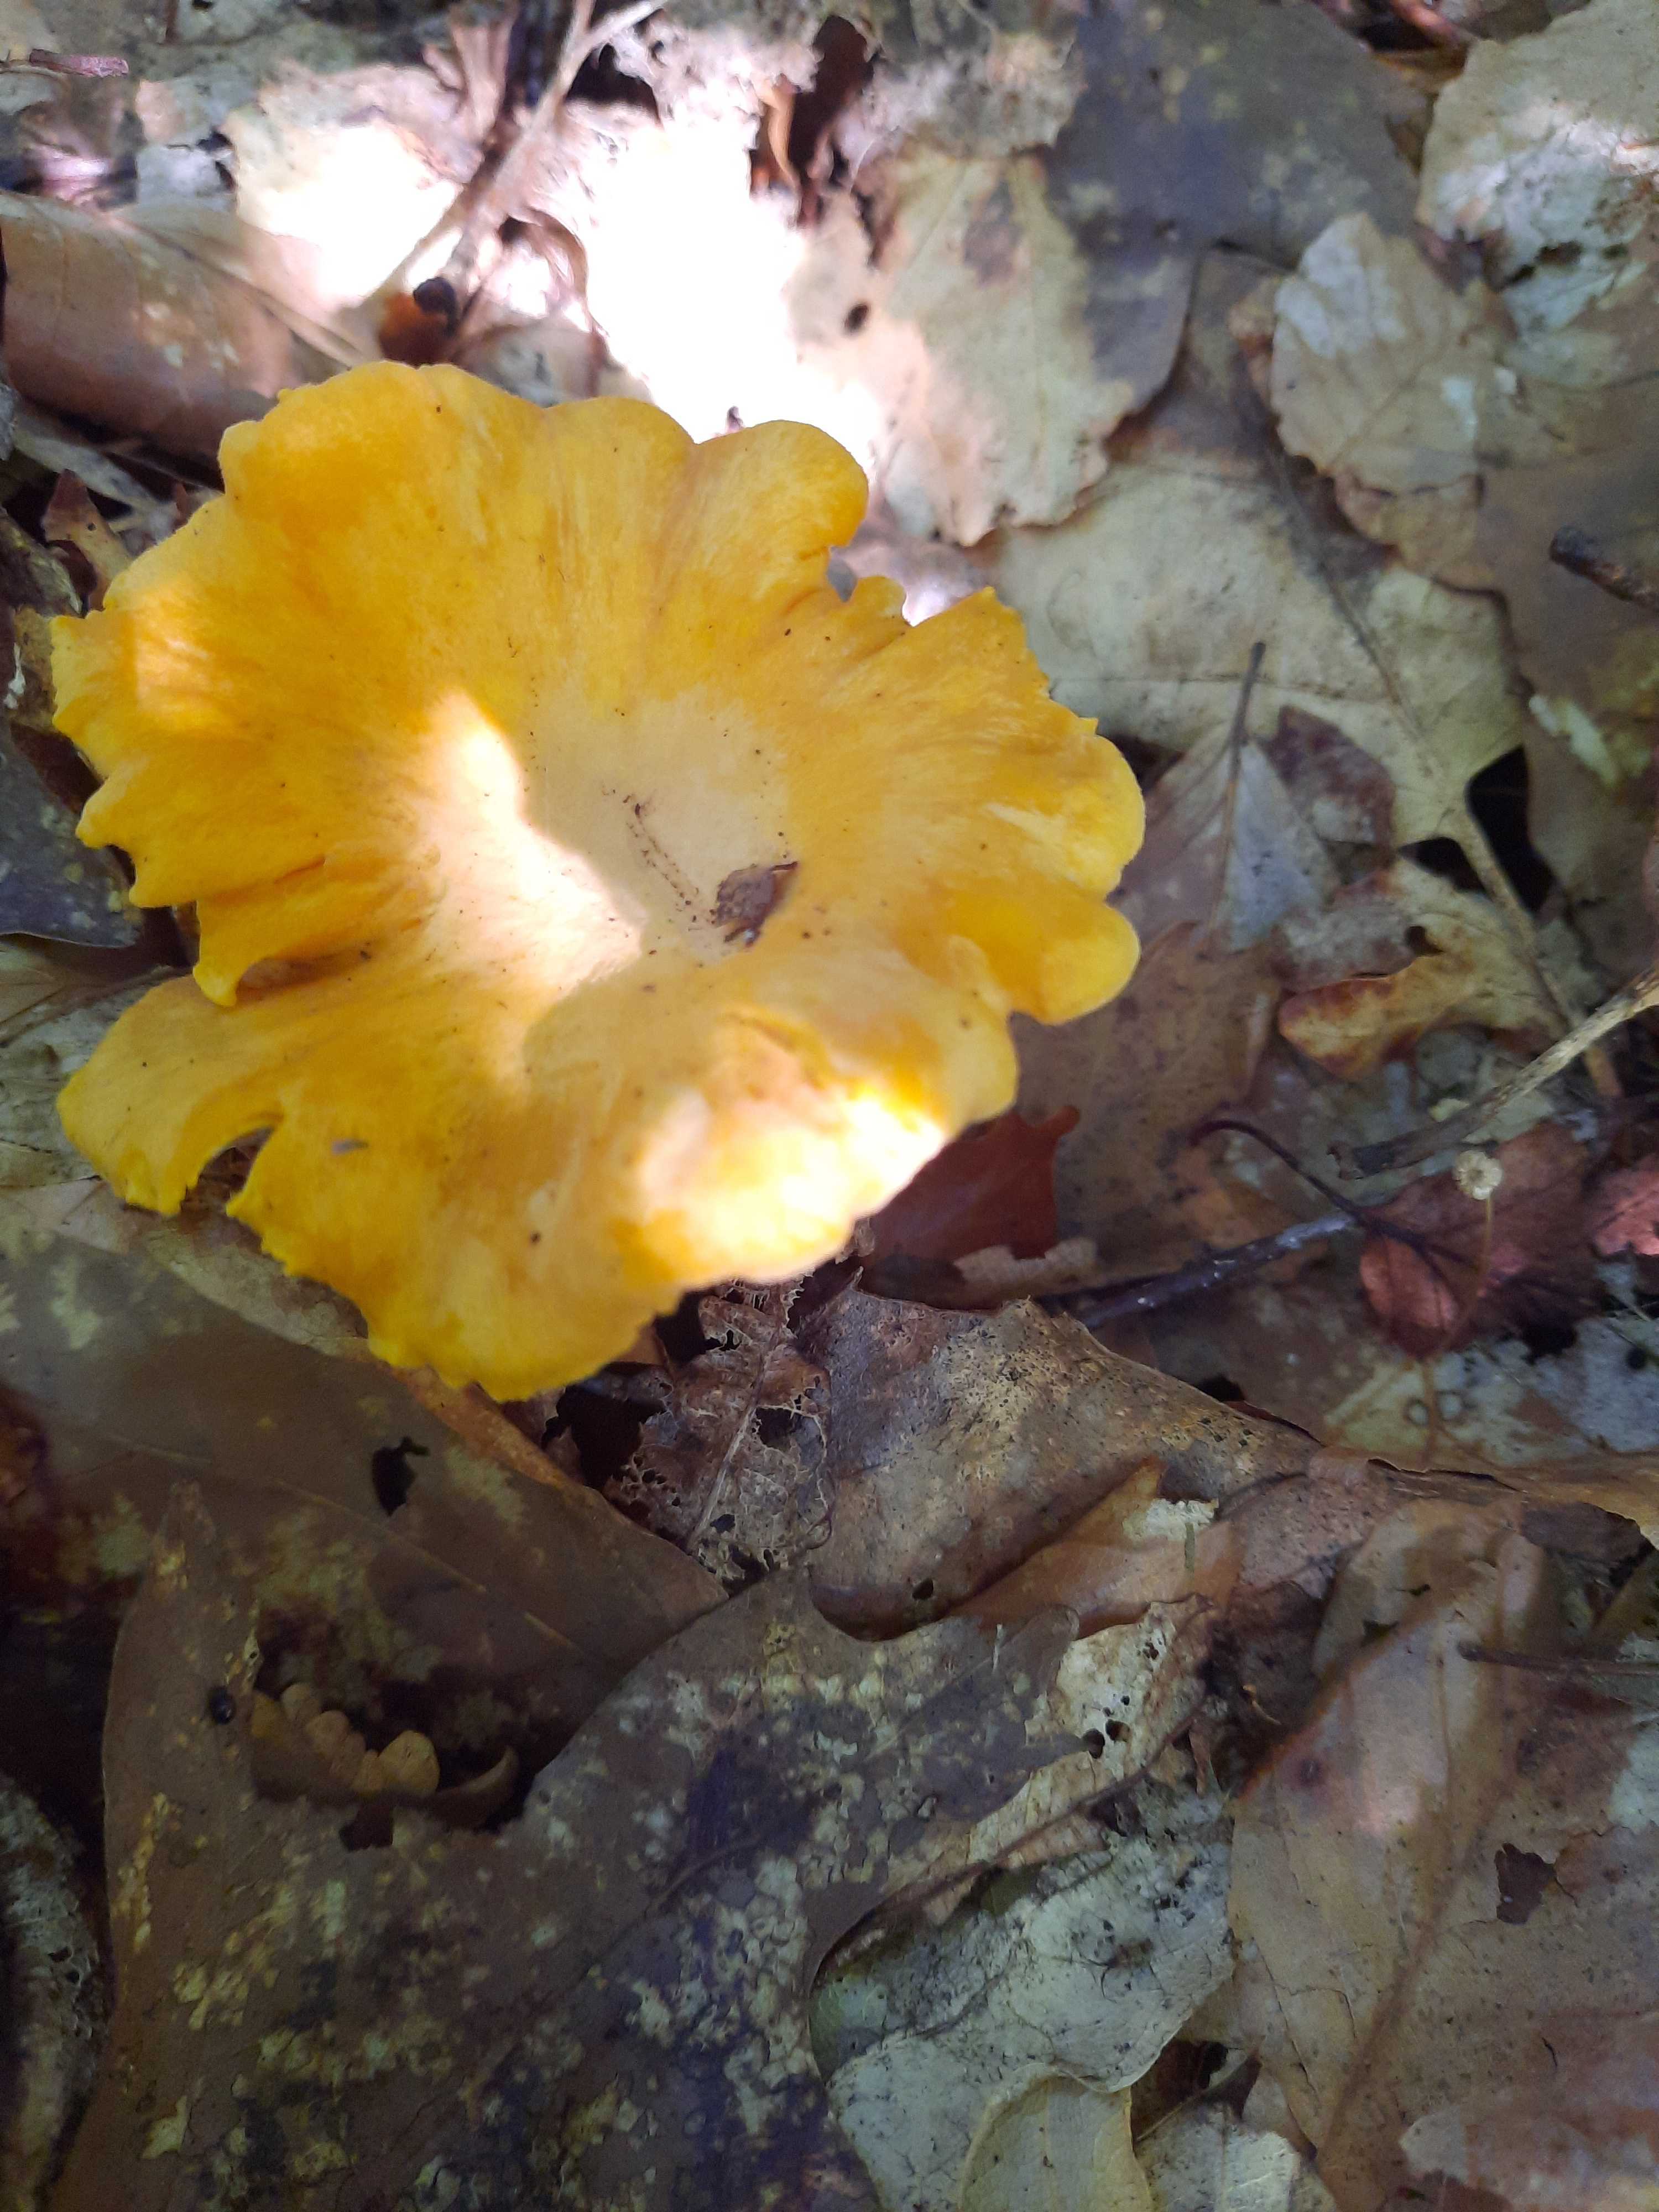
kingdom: Fungi
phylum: Basidiomycota
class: Agaricomycetes
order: Cantharellales
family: Hydnaceae
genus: Cantharellus
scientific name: Cantharellus cibarius
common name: almindelig kantarel
